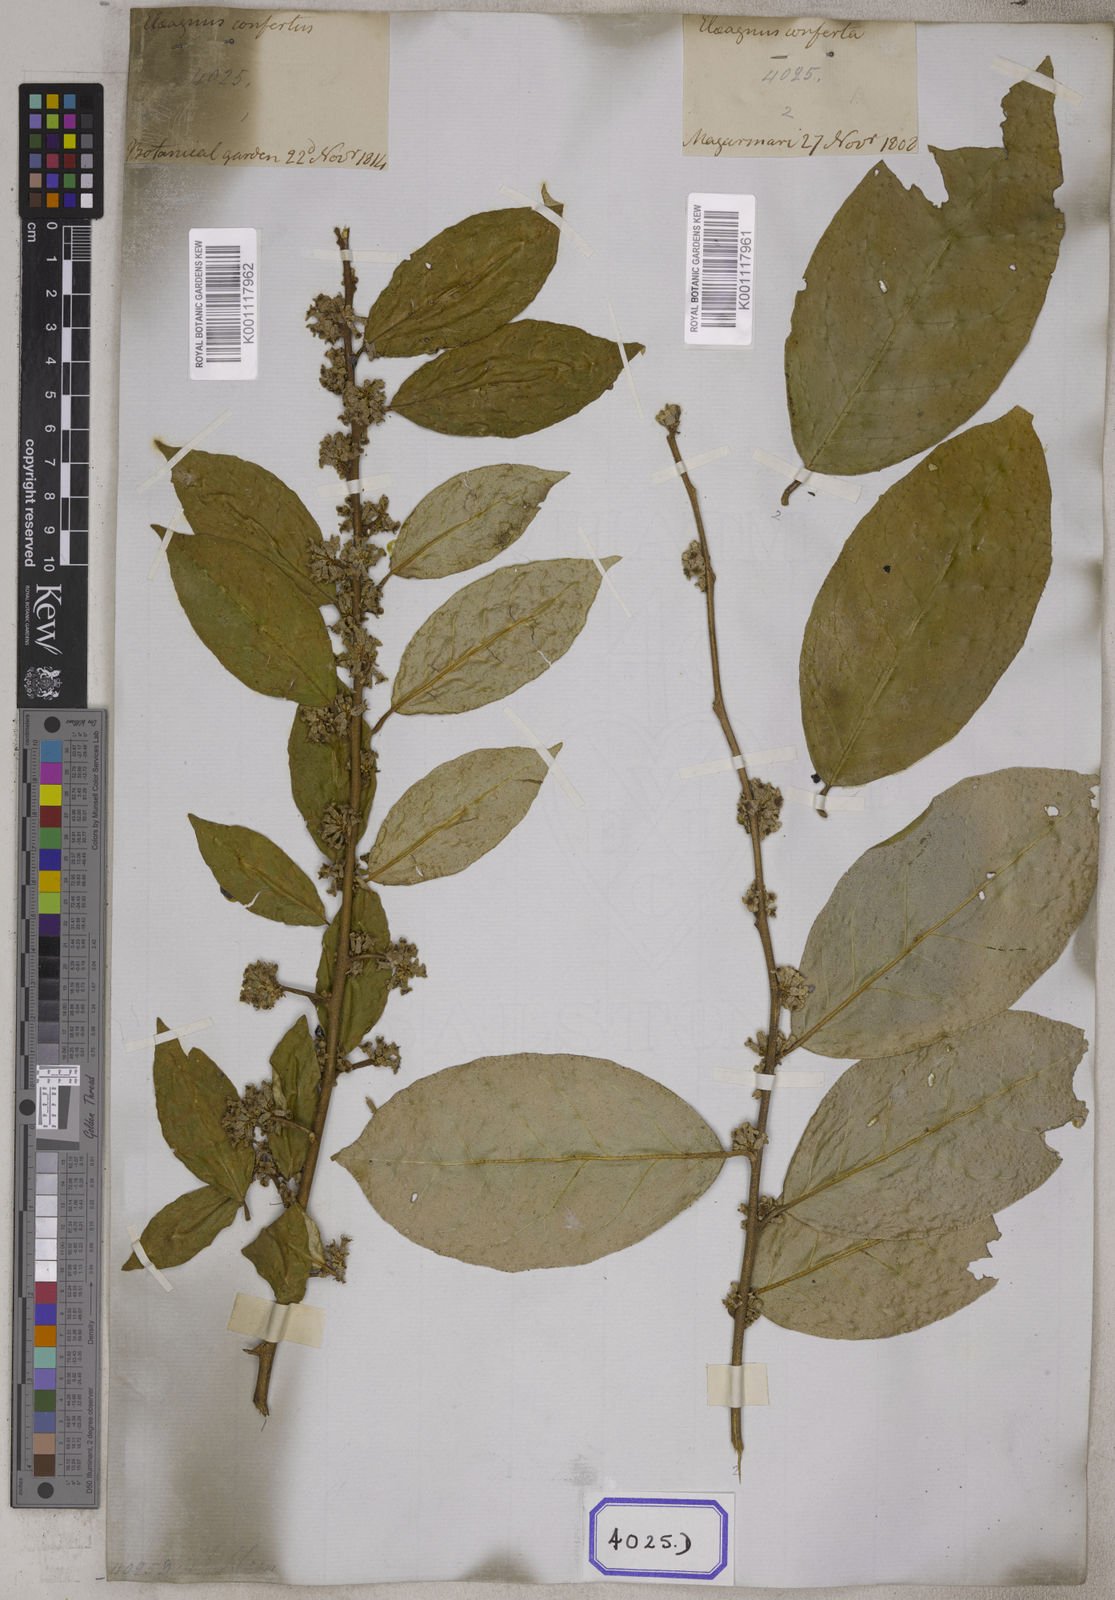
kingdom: Plantae
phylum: Tracheophyta
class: Magnoliopsida
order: Rosales
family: Elaeagnaceae
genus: Elaeagnus
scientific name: Elaeagnus conferta
